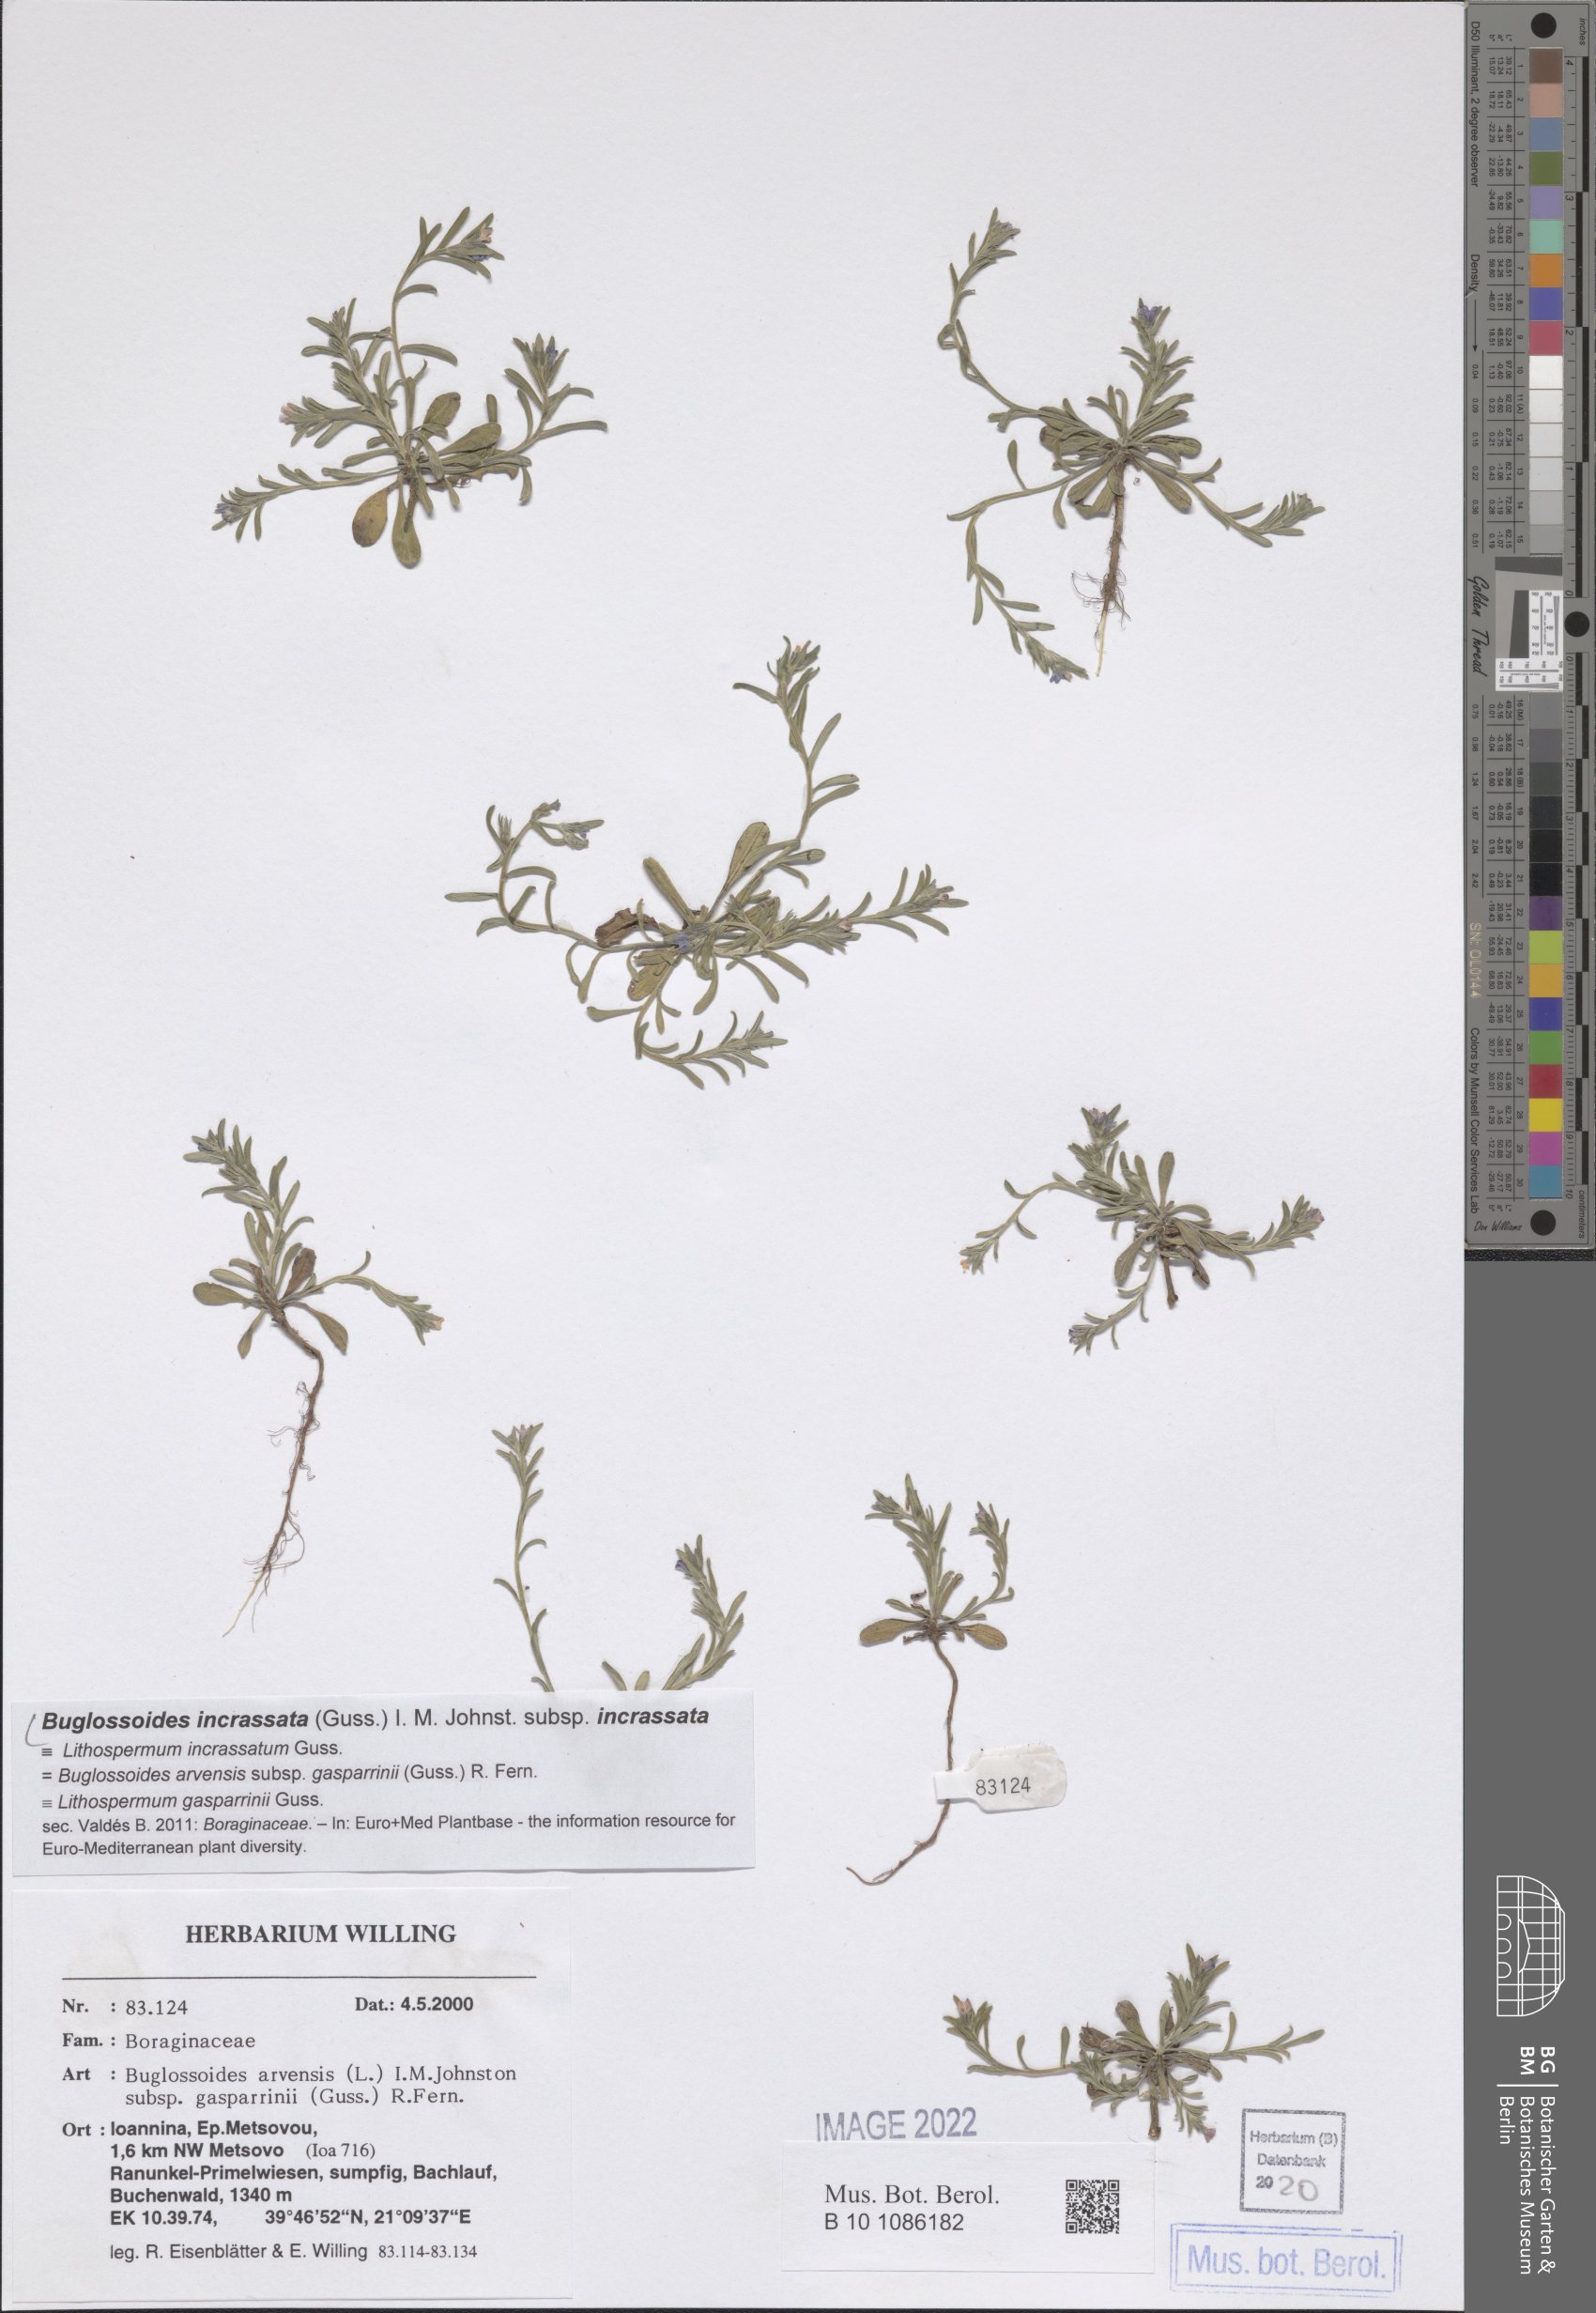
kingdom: Plantae
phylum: Tracheophyta
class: Magnoliopsida
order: Boraginales
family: Boraginaceae
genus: Buglossoides
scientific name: Buglossoides incrassata
